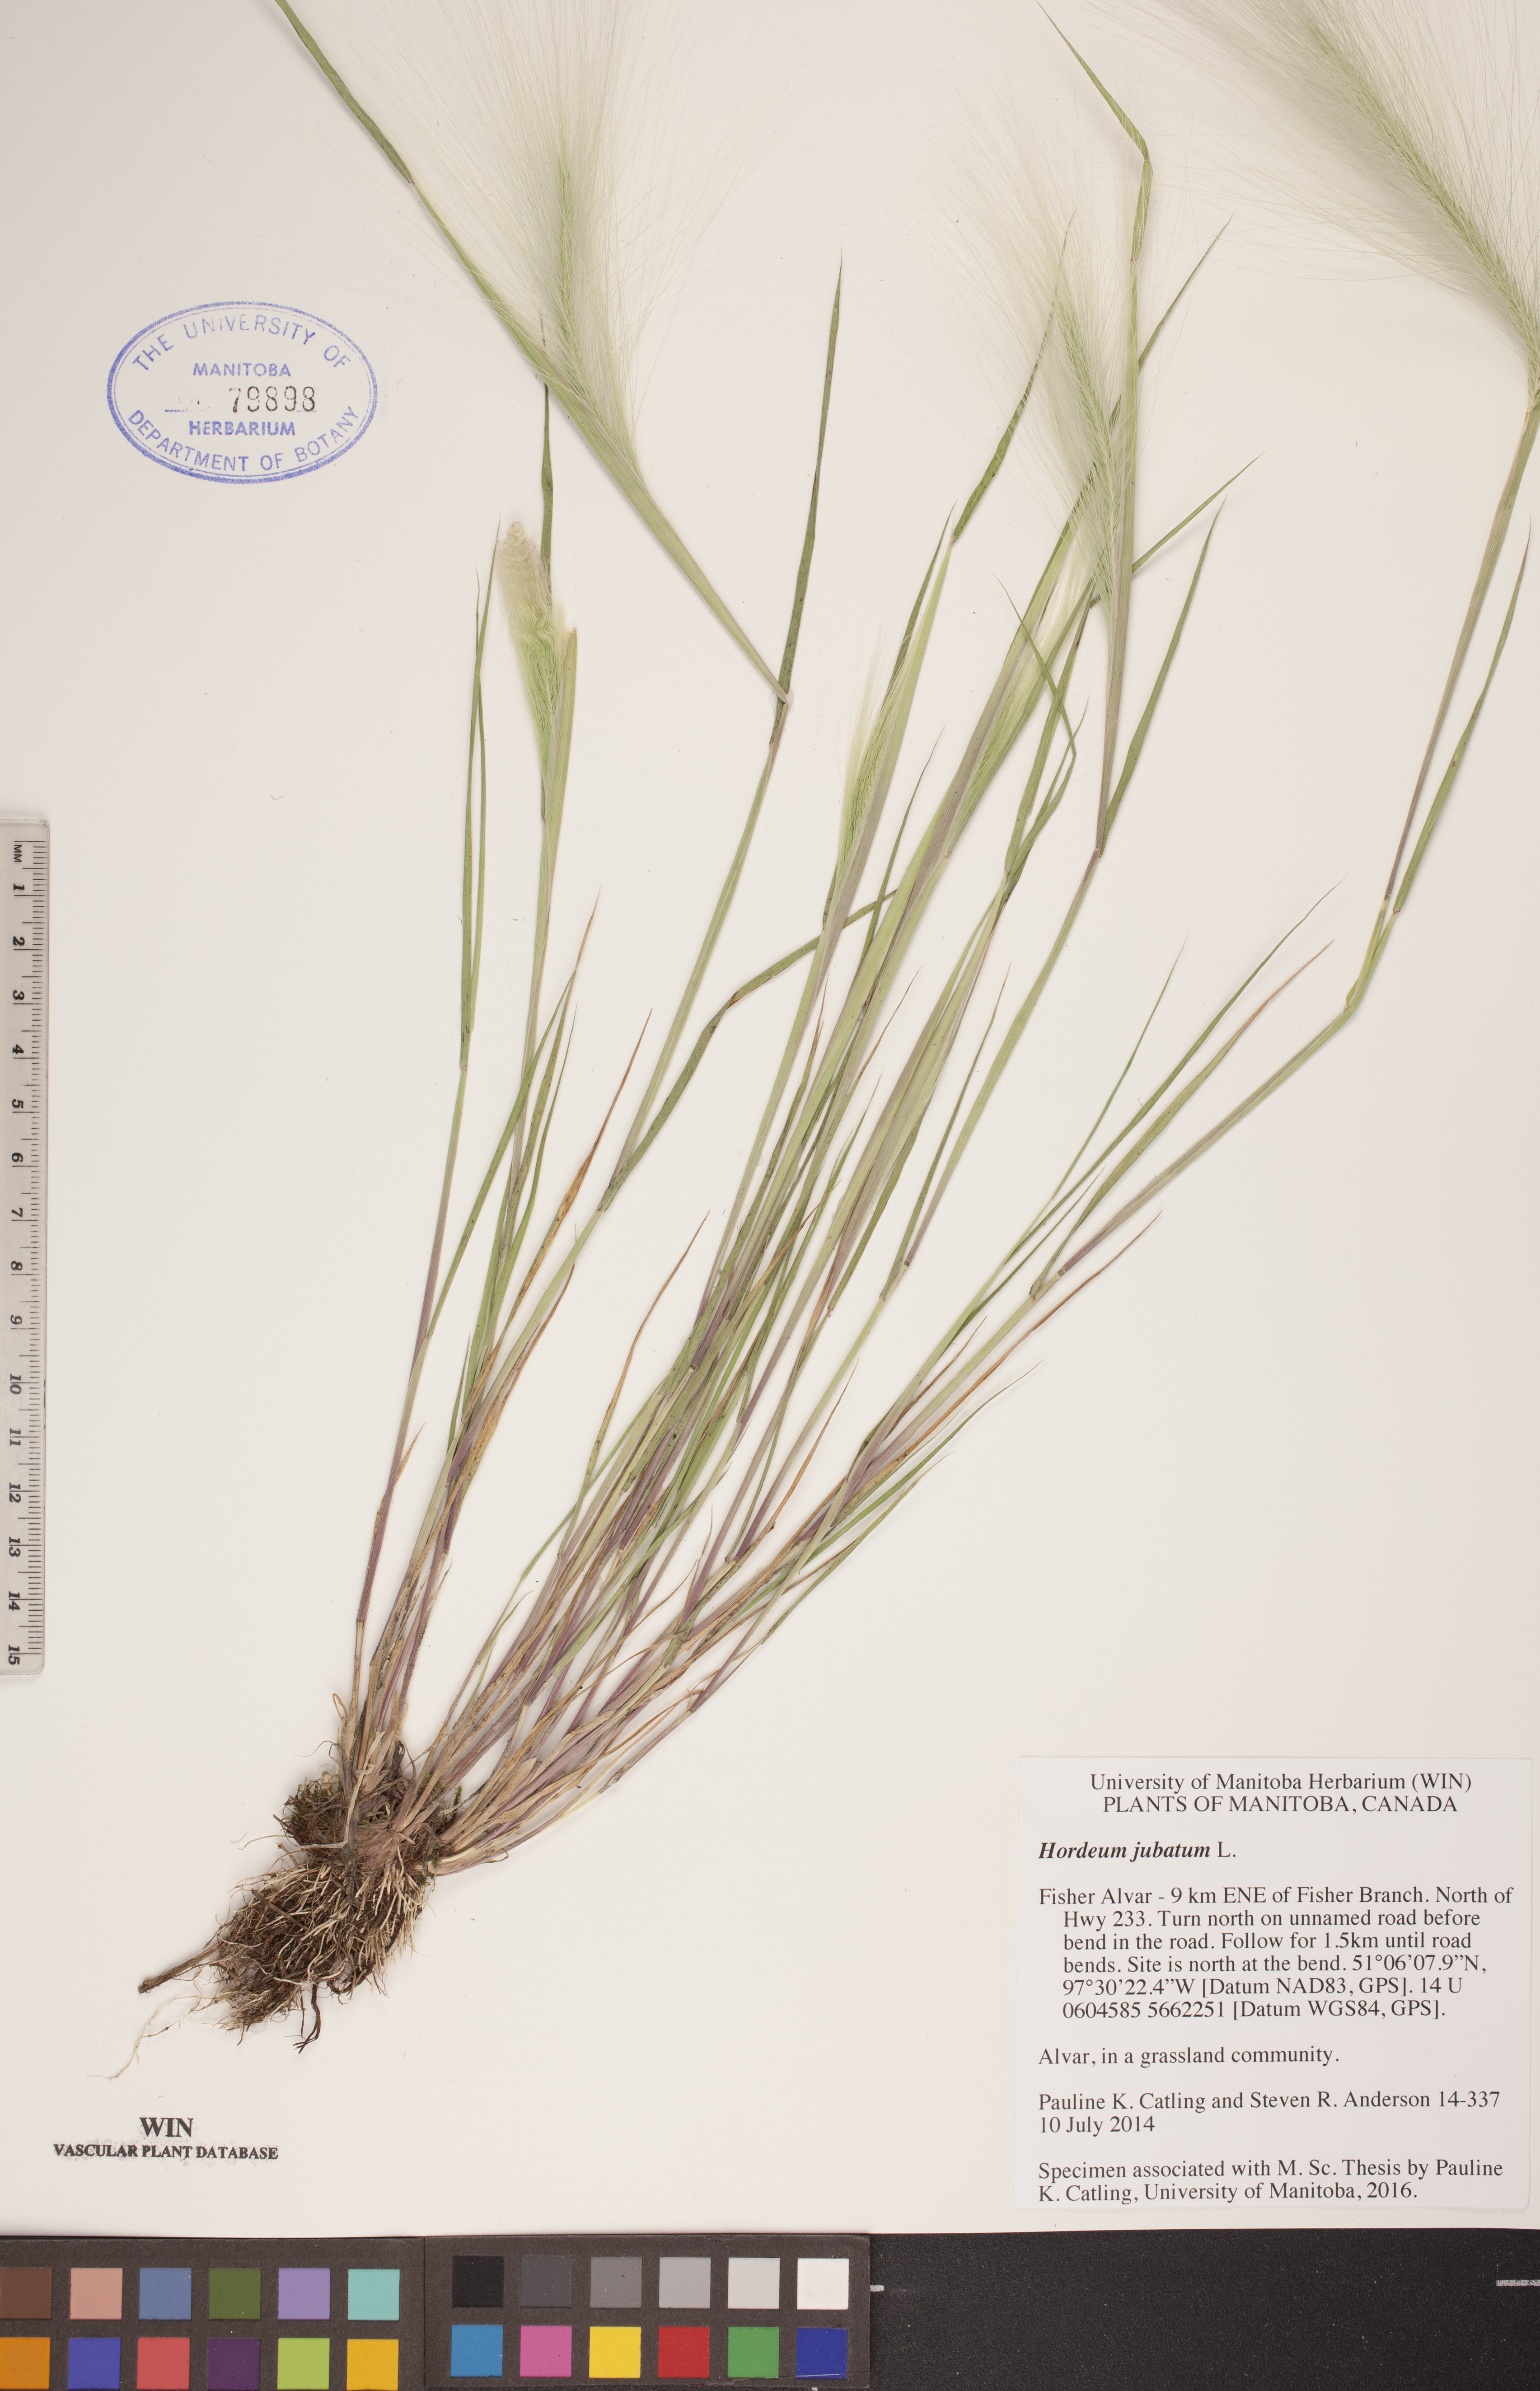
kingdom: Plantae
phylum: Tracheophyta
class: Liliopsida
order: Poales
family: Poaceae
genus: Hordeum
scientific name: Hordeum jubatum
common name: Foxtail barley
